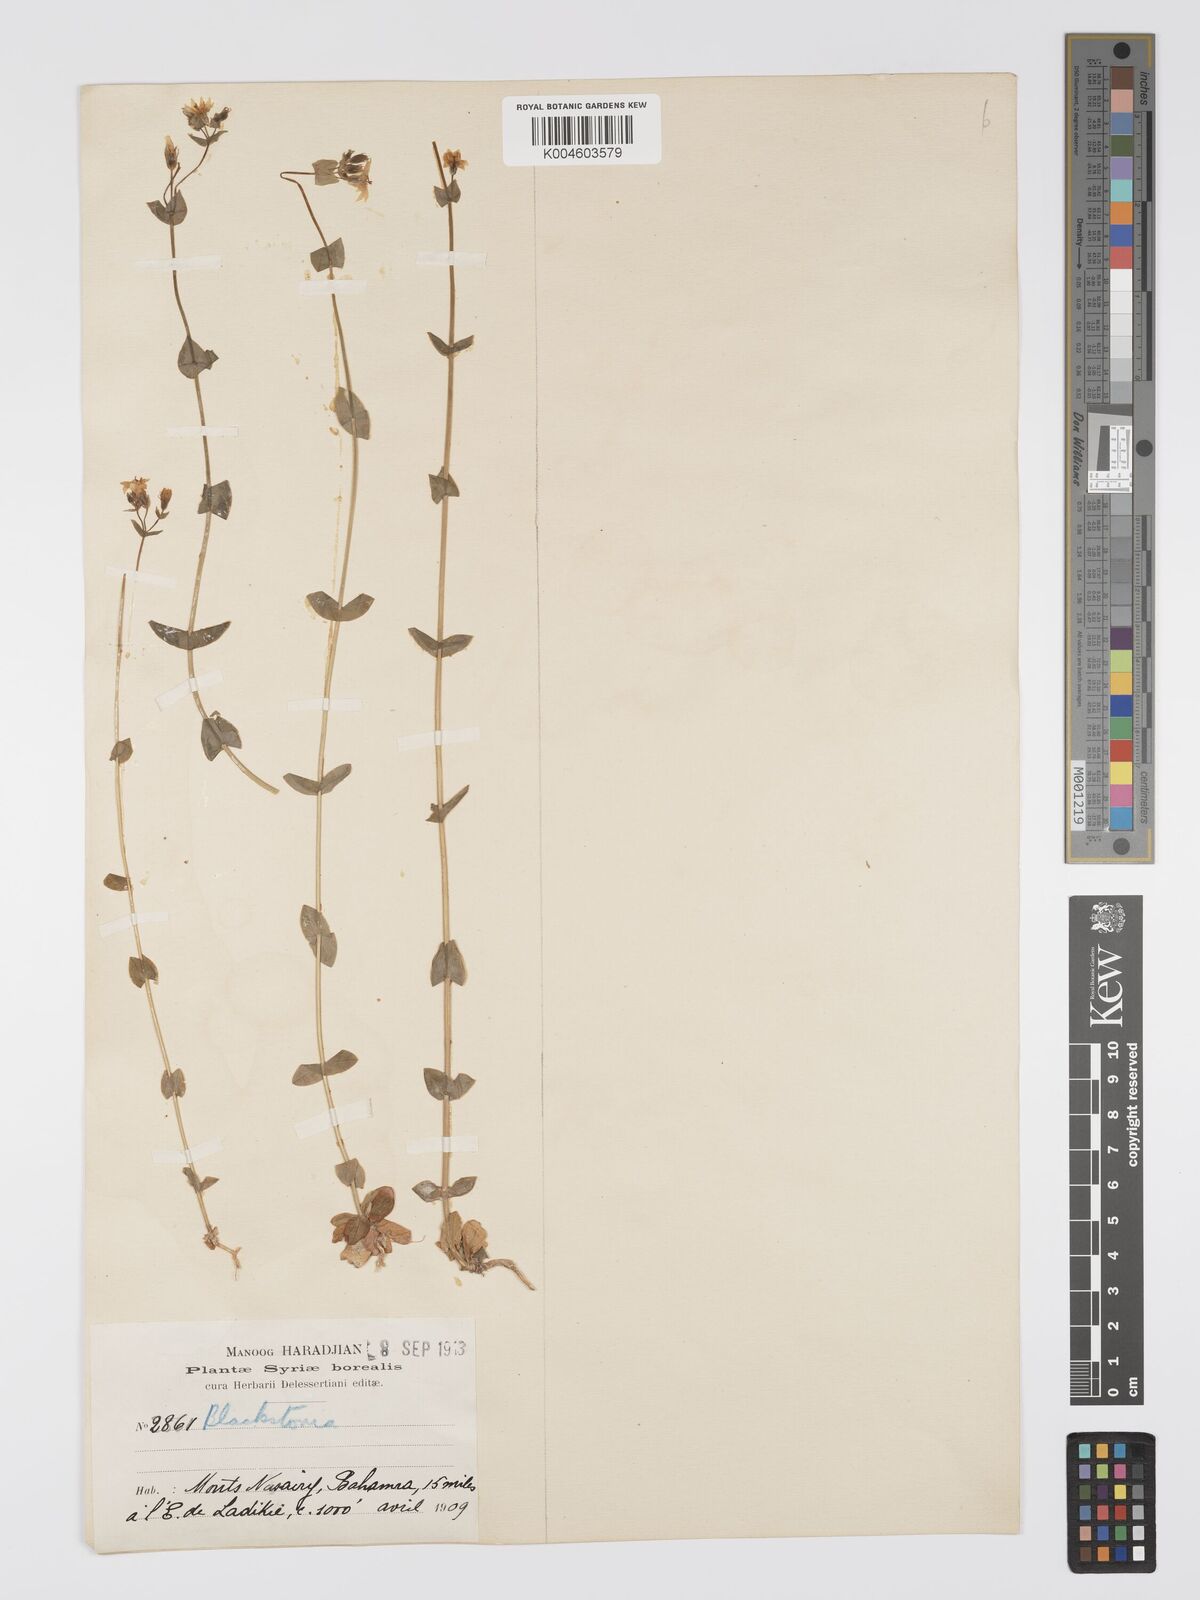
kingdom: Plantae
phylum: Tracheophyta
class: Magnoliopsida
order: Gentianales
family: Gentianaceae
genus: Blackstonia
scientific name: Blackstonia perfoliata
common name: Yellow-wort
